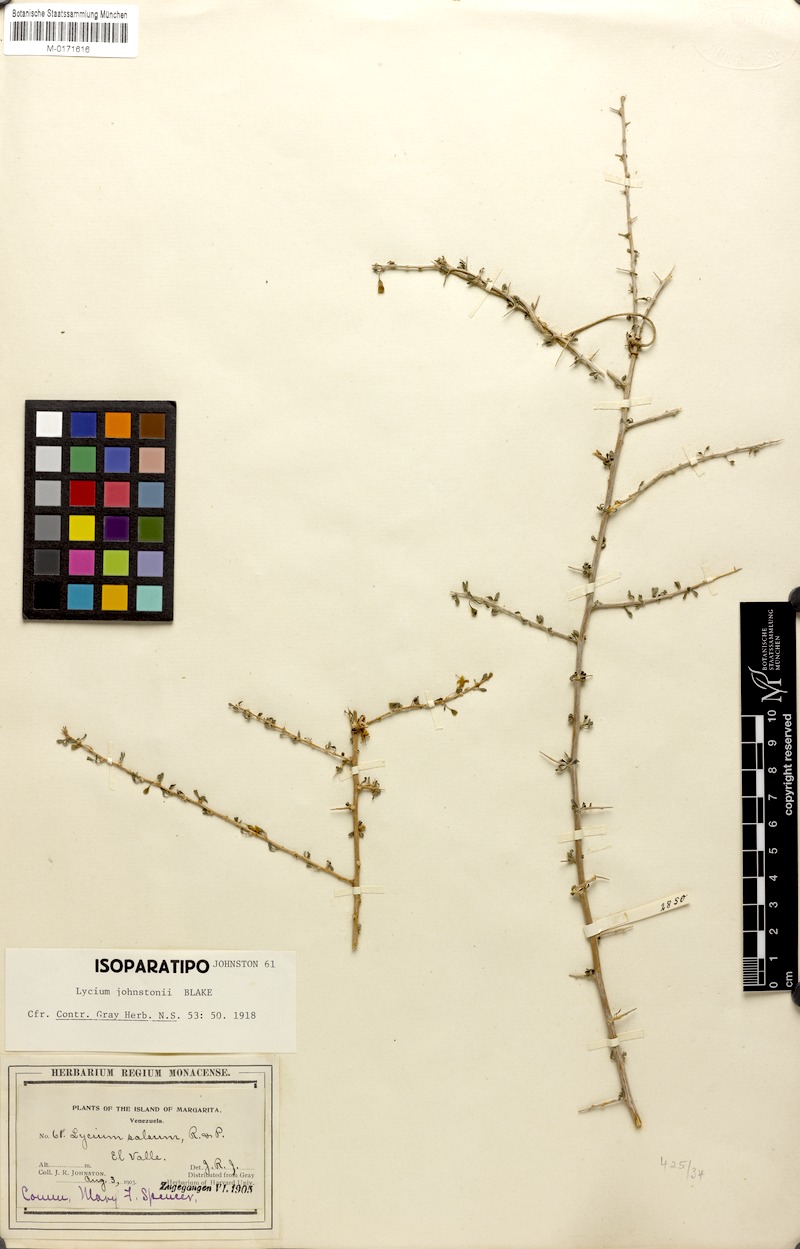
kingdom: Plantae
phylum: Tracheophyta
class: Magnoliopsida
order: Solanales
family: Solanaceae
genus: Lycium
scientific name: Lycium americanum
